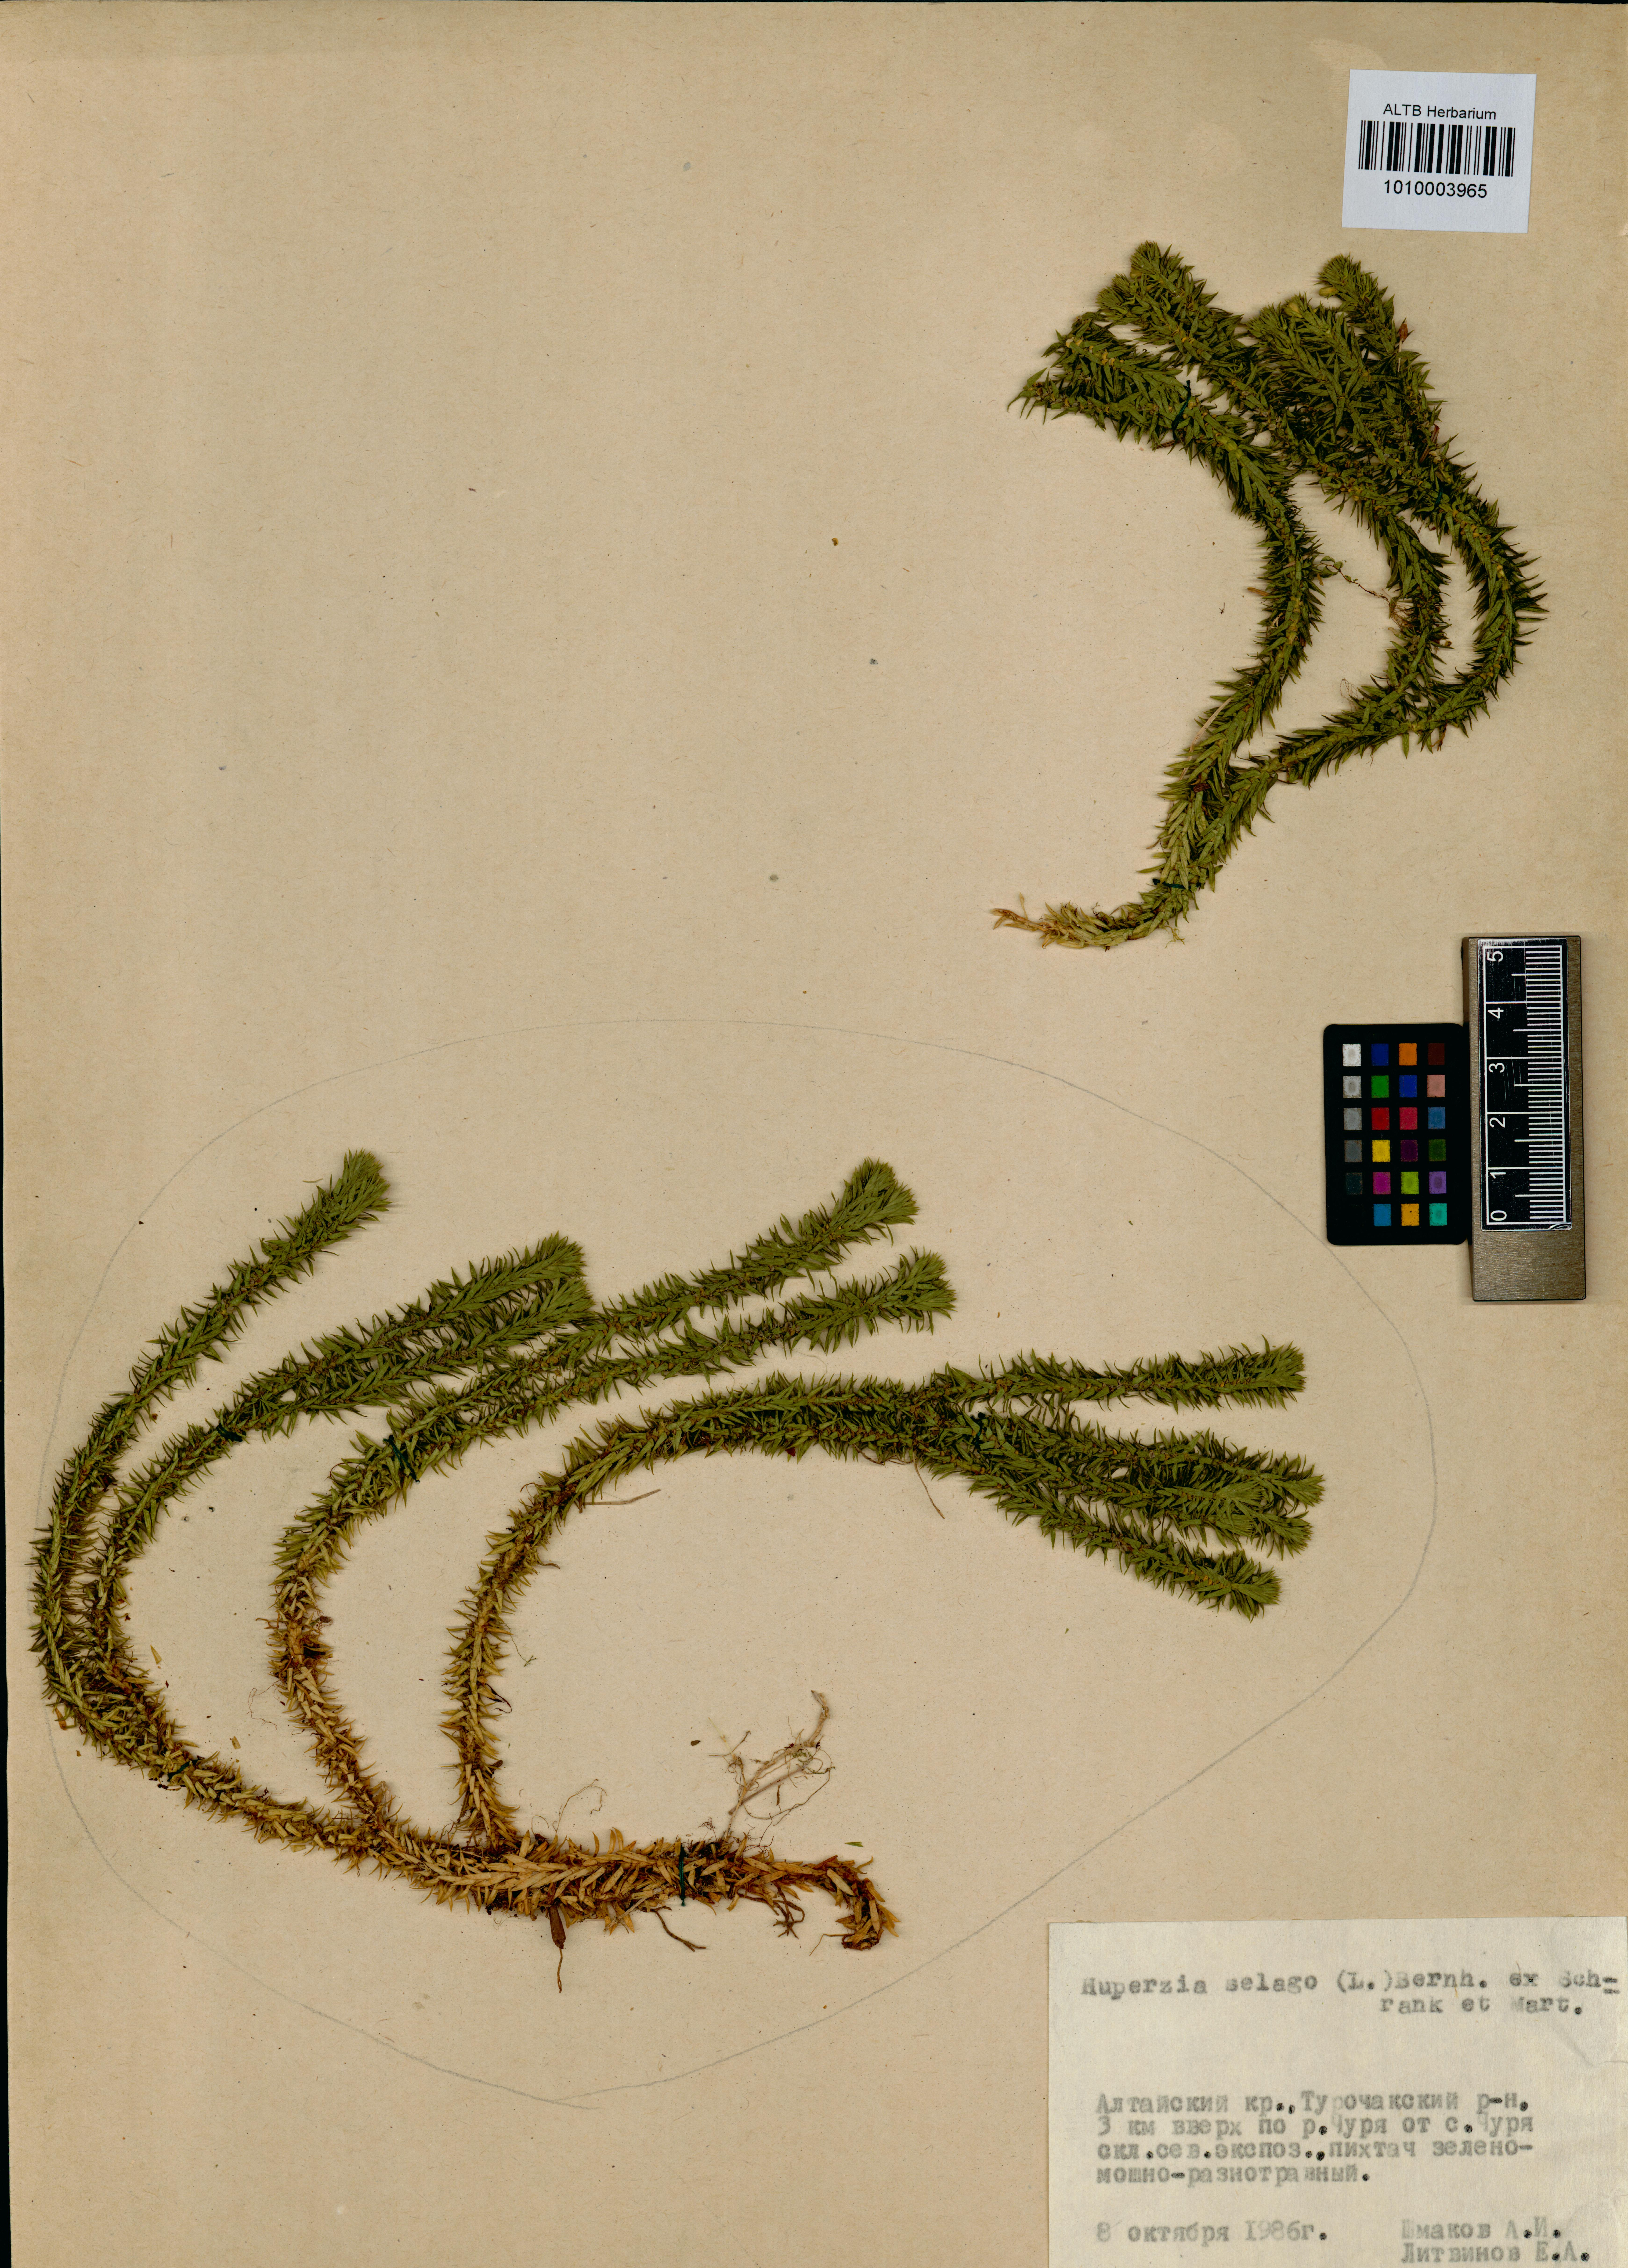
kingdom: Plantae
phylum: Tracheophyta
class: Lycopodiopsida
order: Lycopodiales
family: Lycopodiaceae
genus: Huperzia
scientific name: Huperzia selago
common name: Northern firmoss
